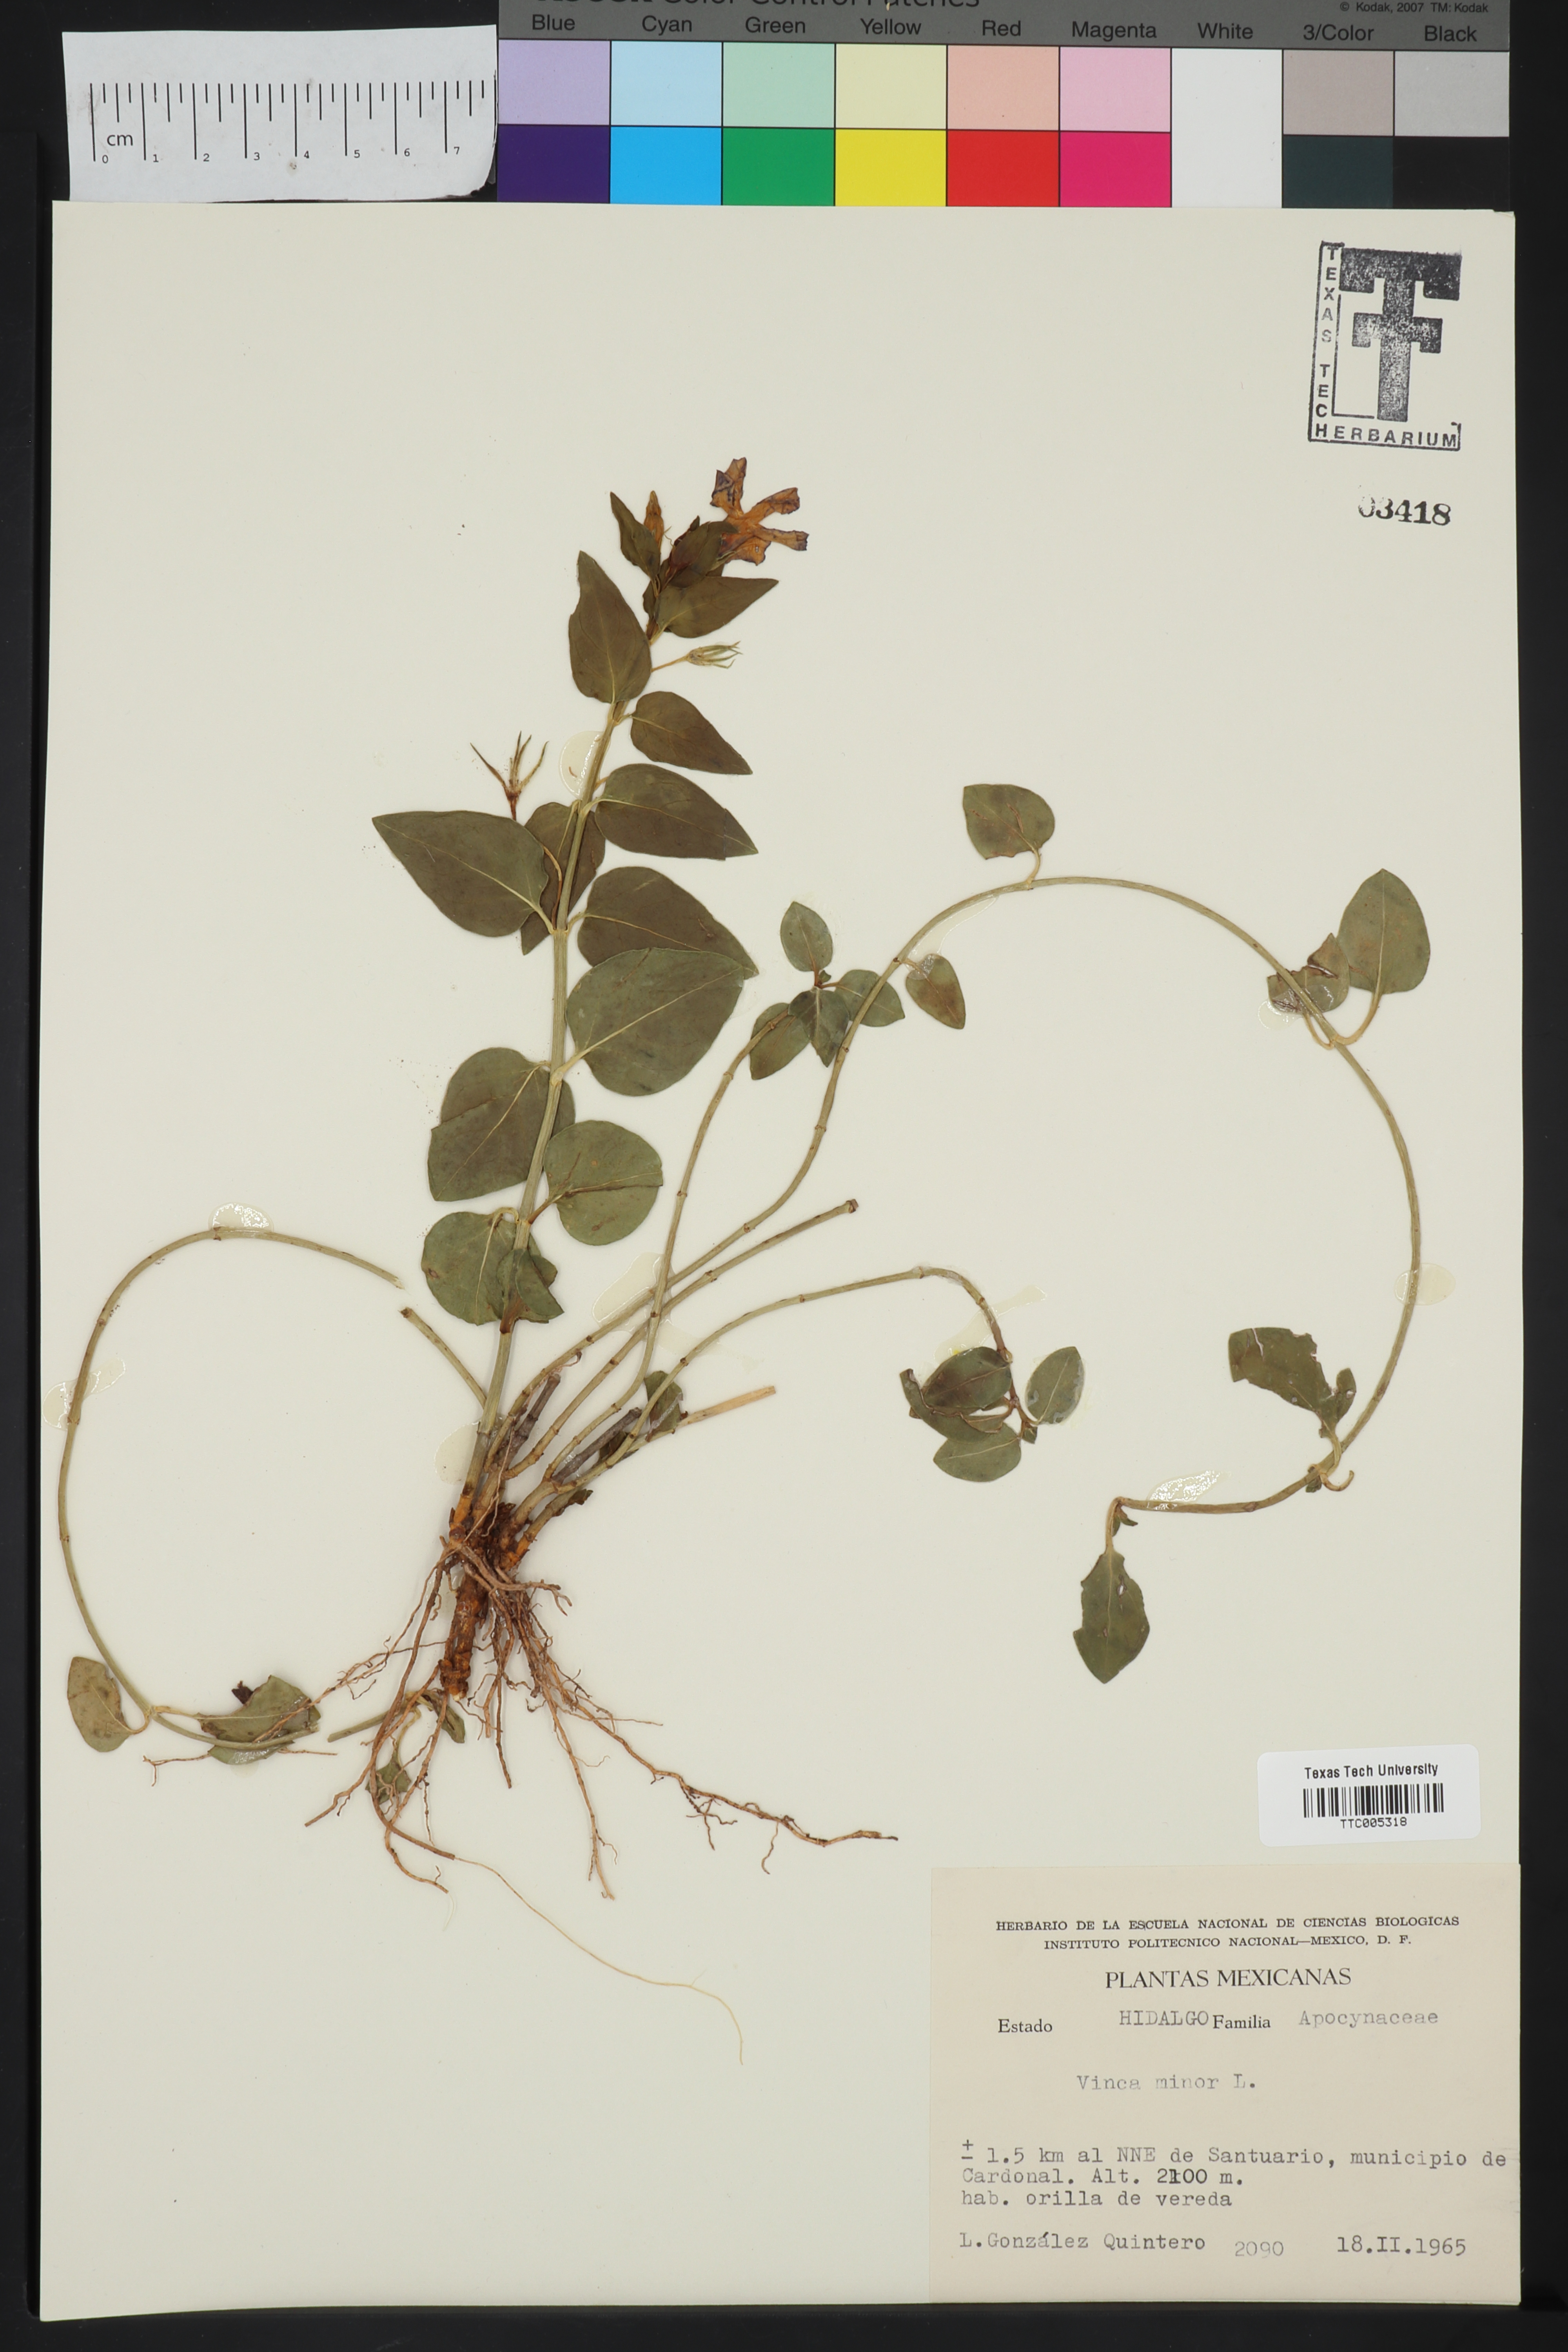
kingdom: Plantae
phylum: Tracheophyta
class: Magnoliopsida
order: Gentianales
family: Apocynaceae
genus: Vinca
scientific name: Vinca minor
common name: Lesser periwinkle
